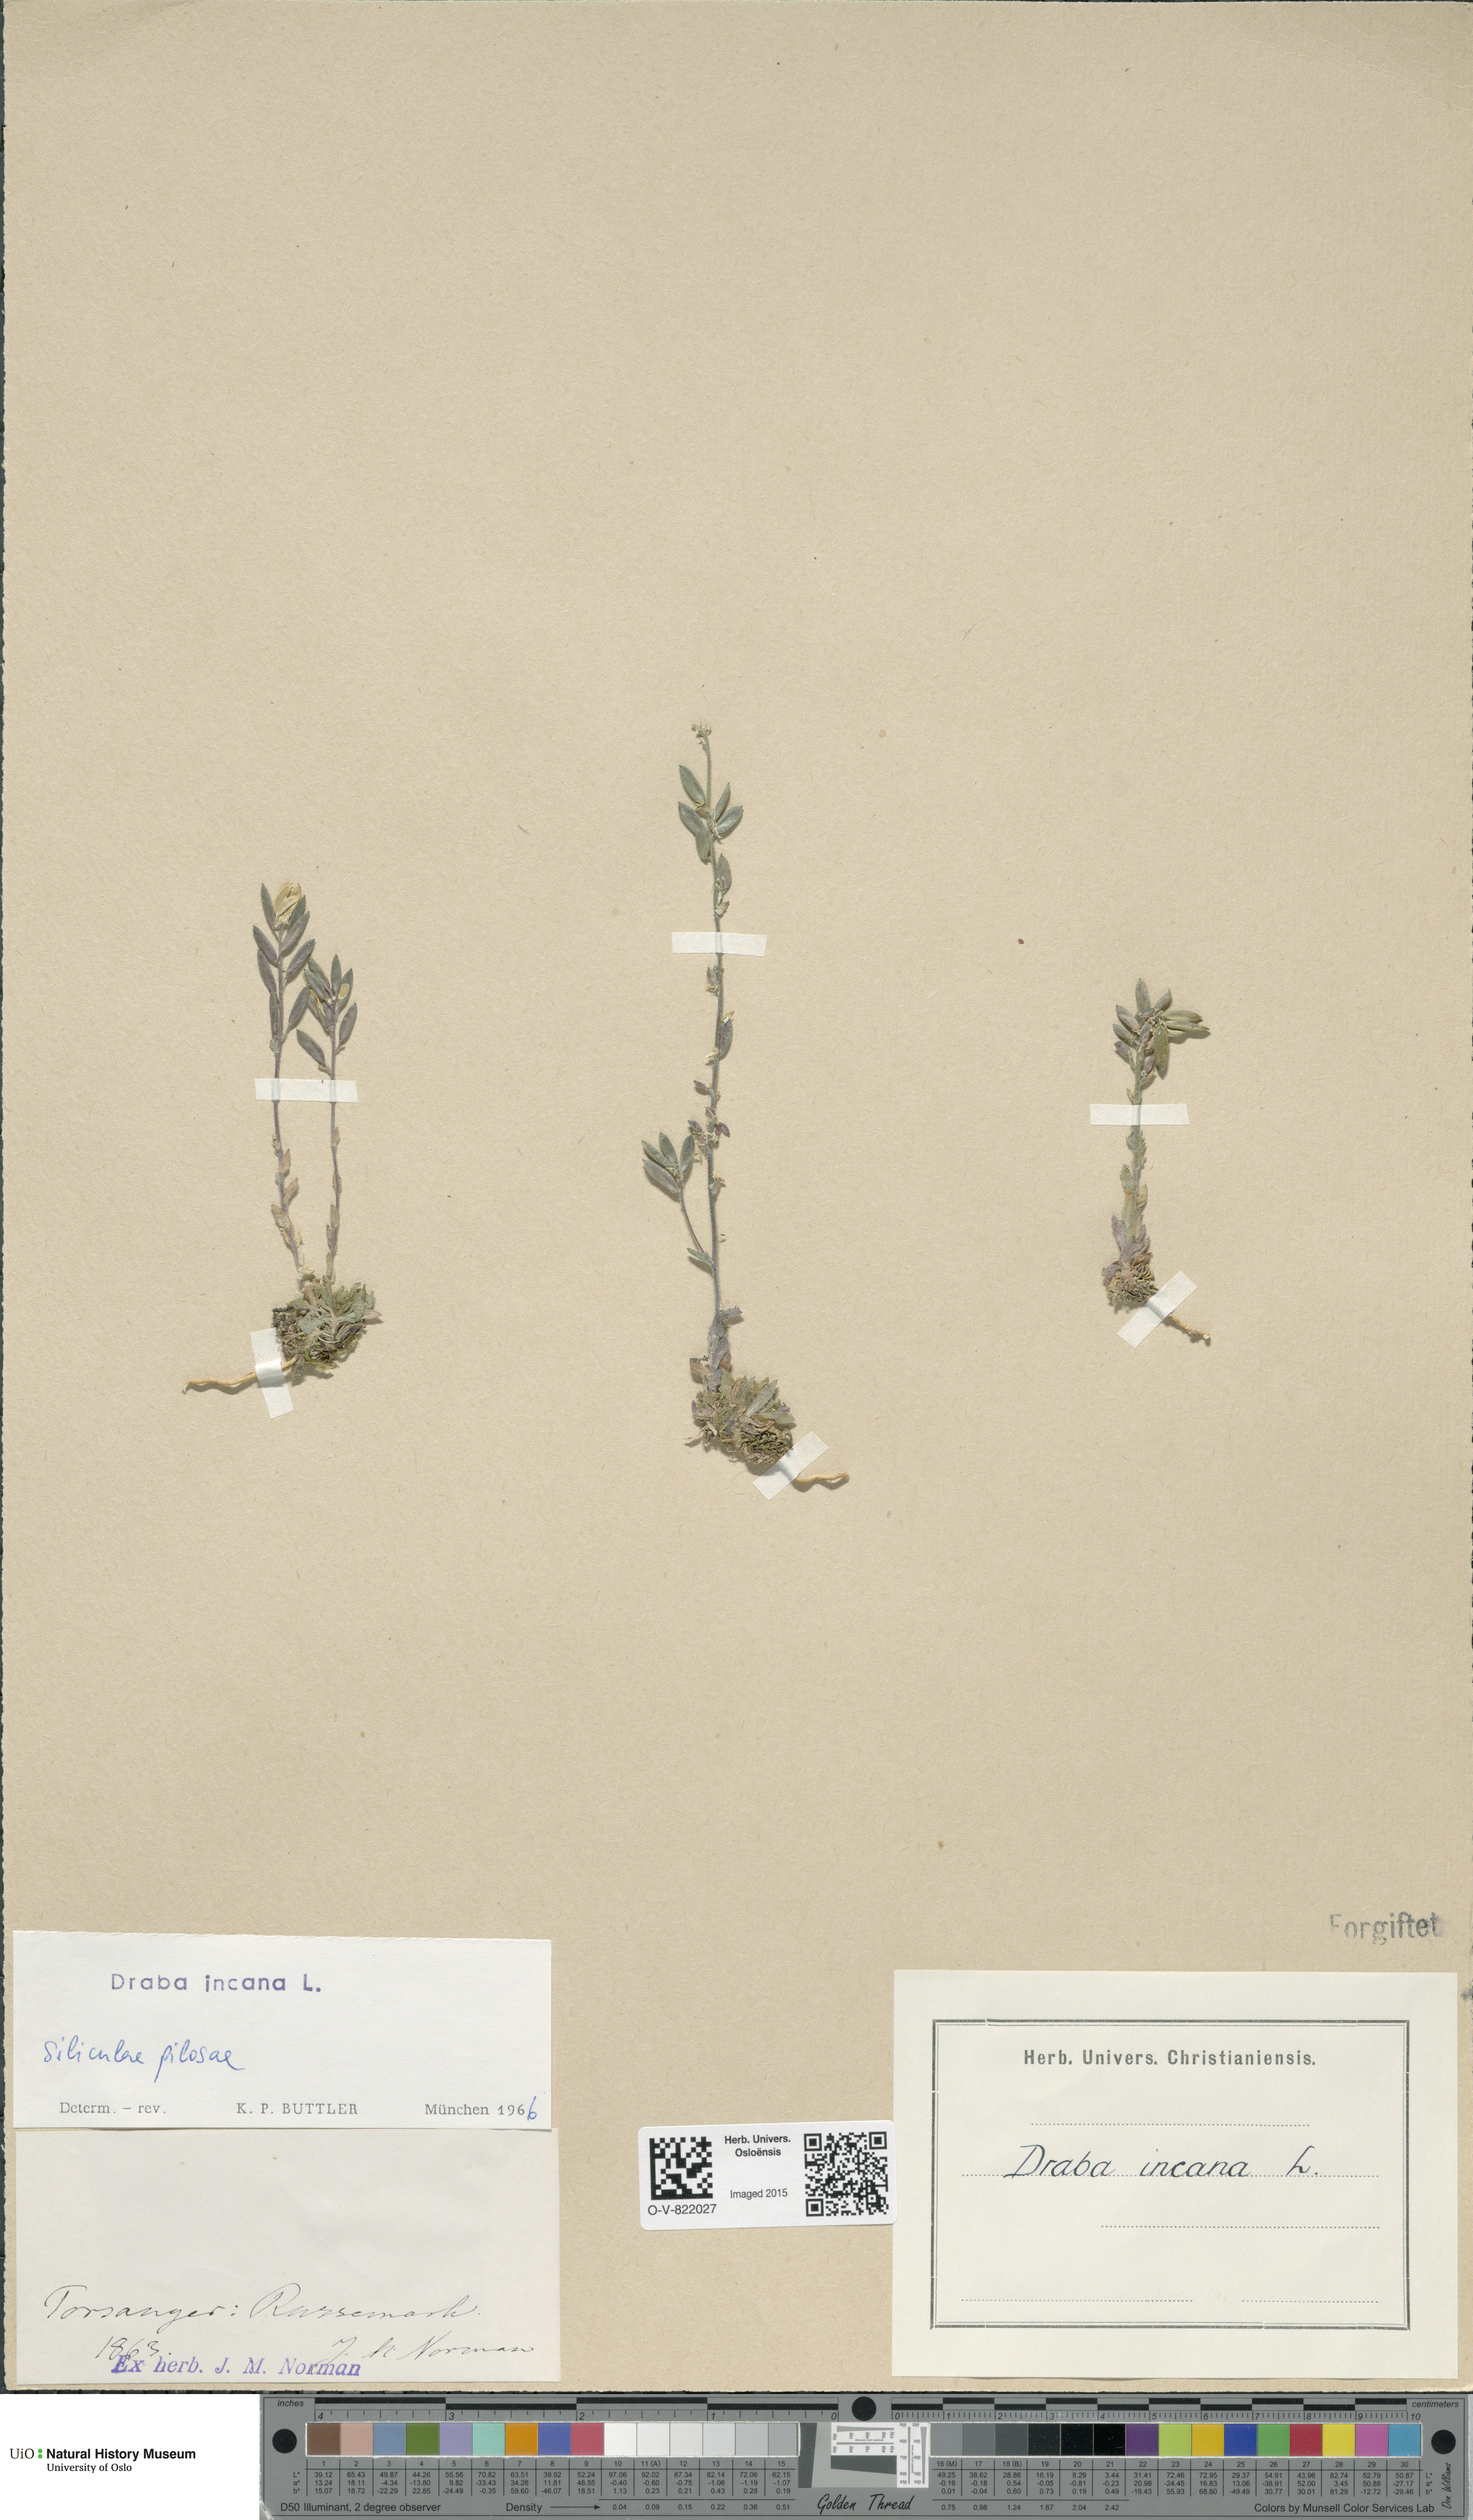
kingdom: Plantae
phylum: Tracheophyta
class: Magnoliopsida
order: Brassicales
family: Brassicaceae
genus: Draba
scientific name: Draba incana
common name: Hoary whitlow-grass
